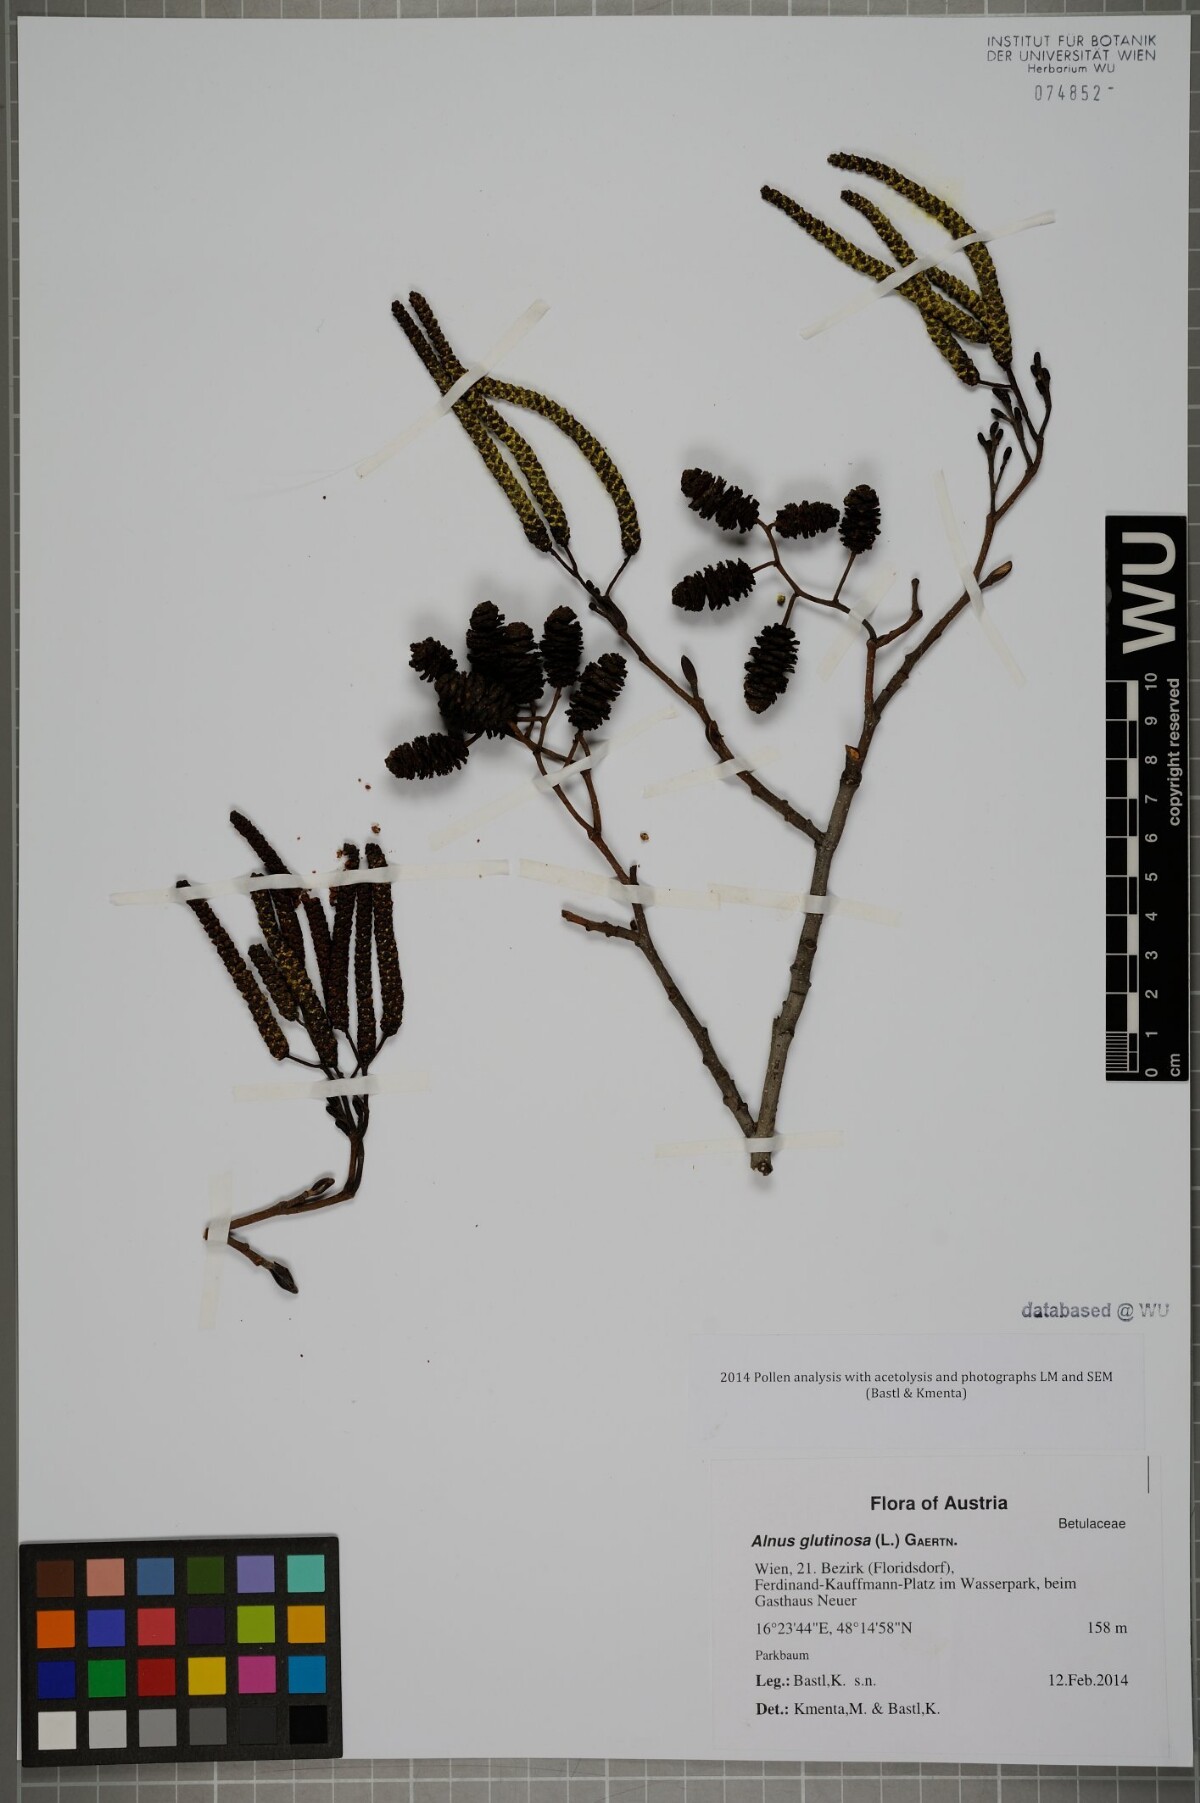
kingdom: Plantae
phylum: Tracheophyta
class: Magnoliopsida
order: Fagales
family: Betulaceae
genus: Alnus
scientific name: Alnus glutinosa
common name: Black alder
